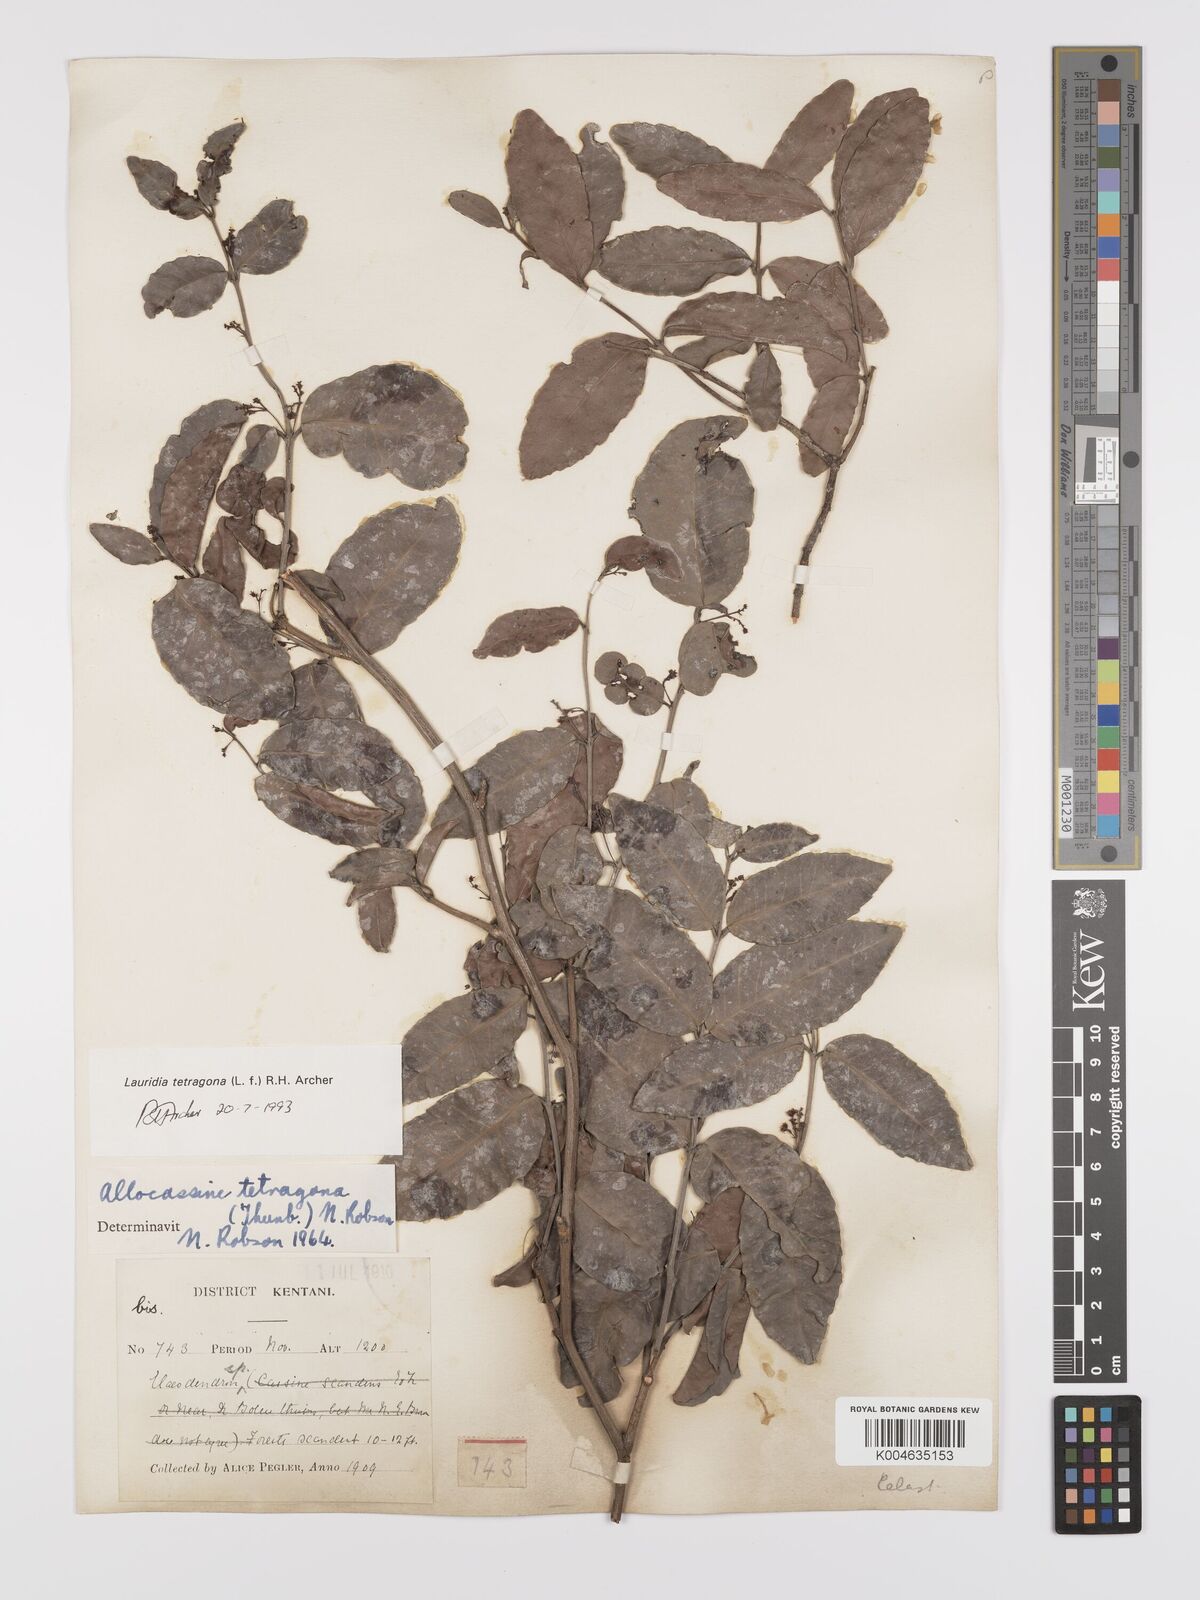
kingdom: Plantae
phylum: Tracheophyta
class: Magnoliopsida
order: Celastrales
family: Celastraceae
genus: Lauridia
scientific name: Lauridia tetragona
